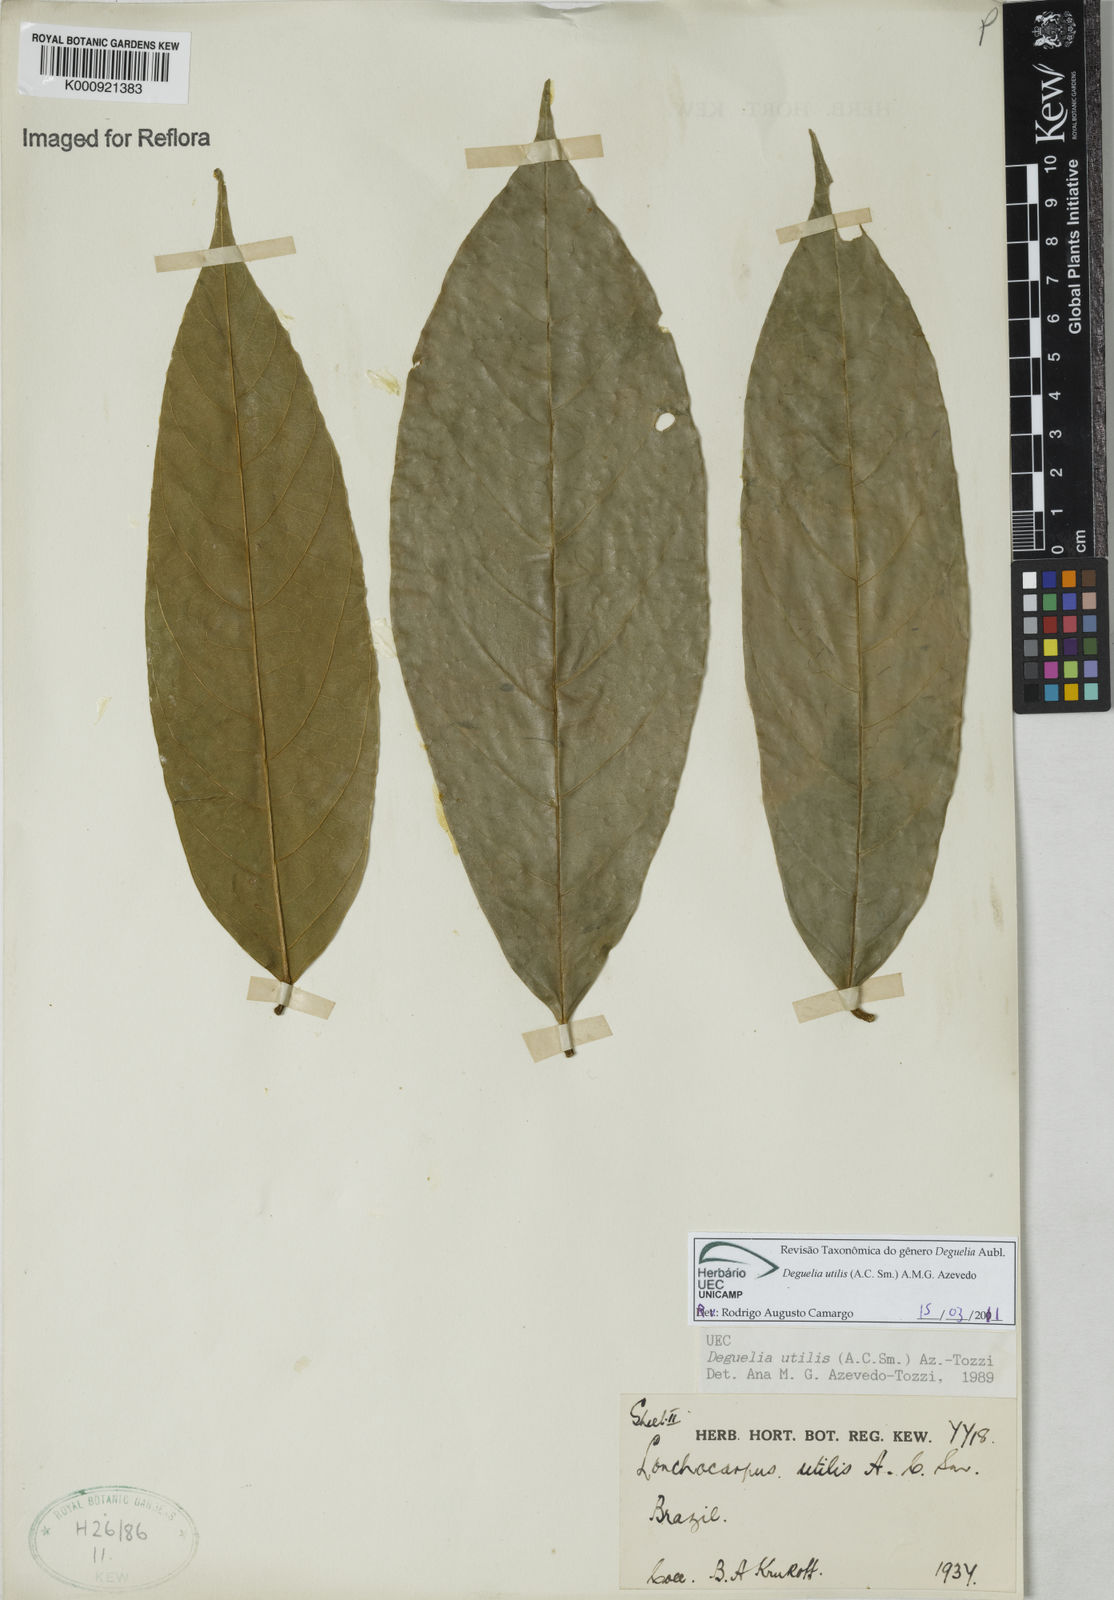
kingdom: Plantae
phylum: Tracheophyta
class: Magnoliopsida
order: Fabales
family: Fabaceae
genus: Deguelia
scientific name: Deguelia utilis
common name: Timbo
